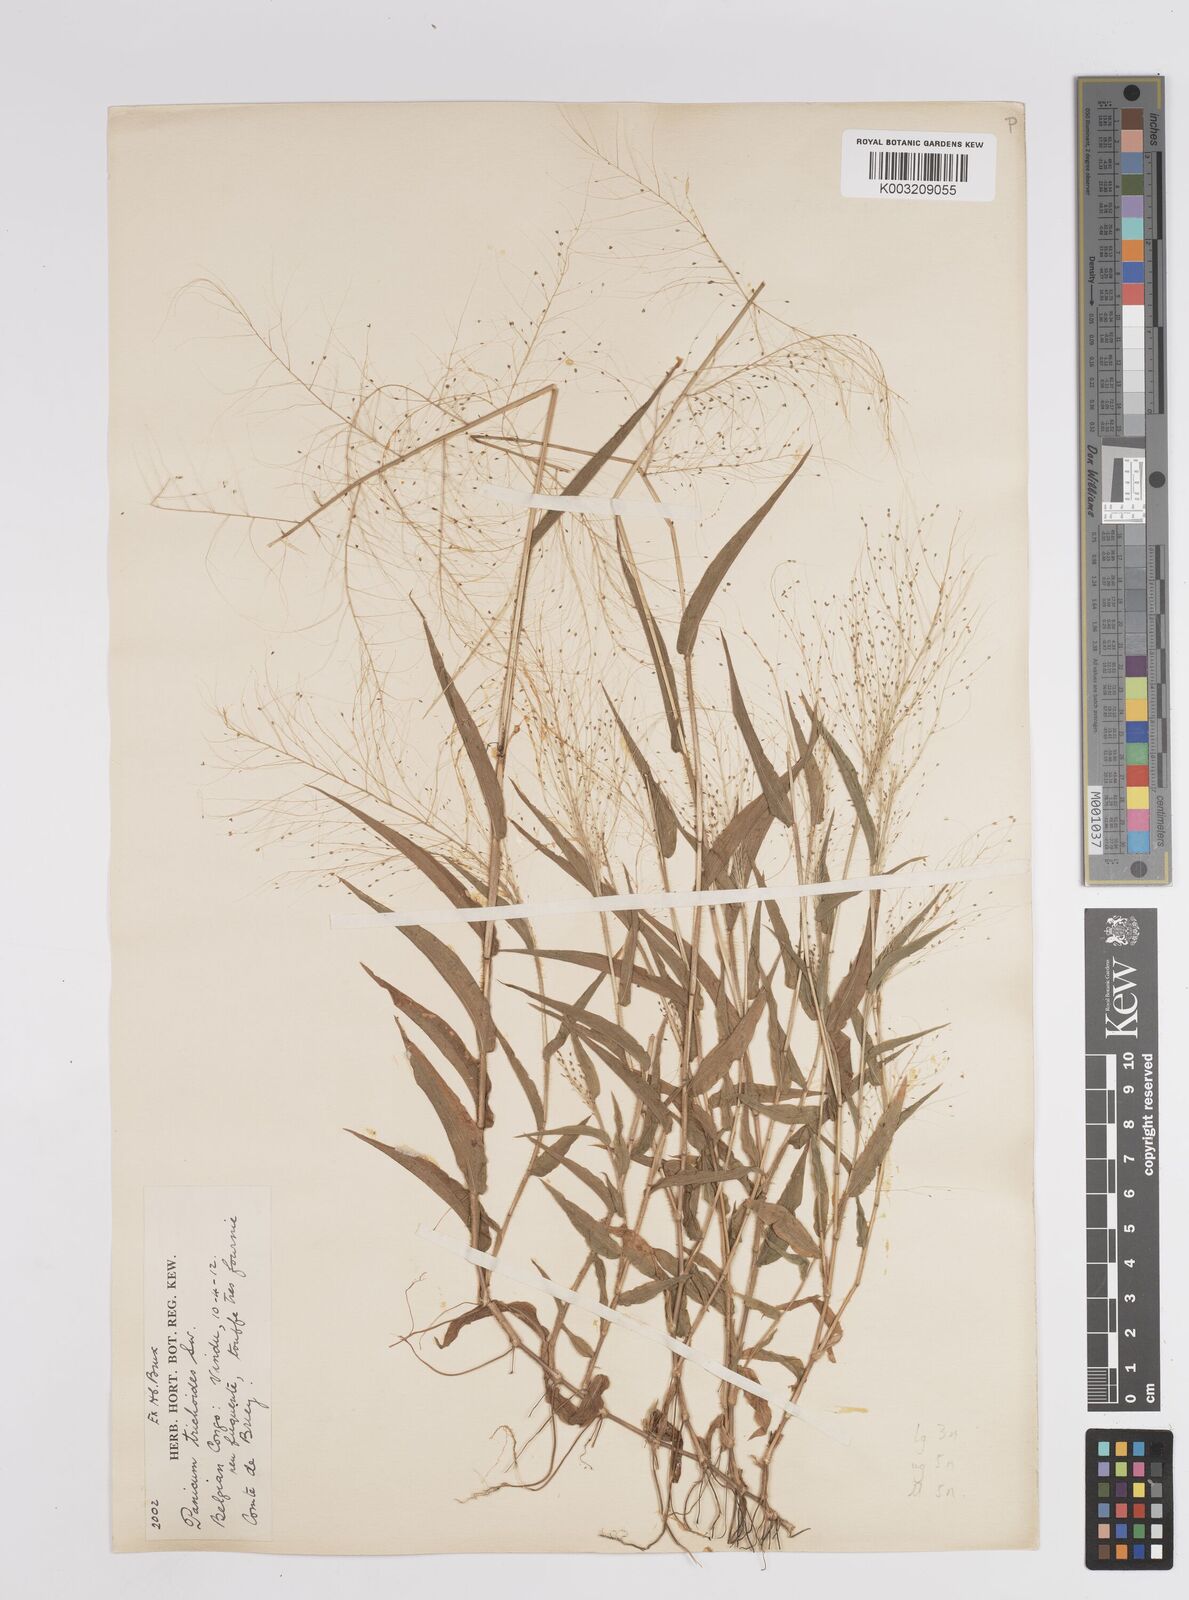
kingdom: Plantae
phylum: Tracheophyta
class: Liliopsida
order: Poales
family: Poaceae
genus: Panicum
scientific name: Panicum trichoides
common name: Tickle grass
